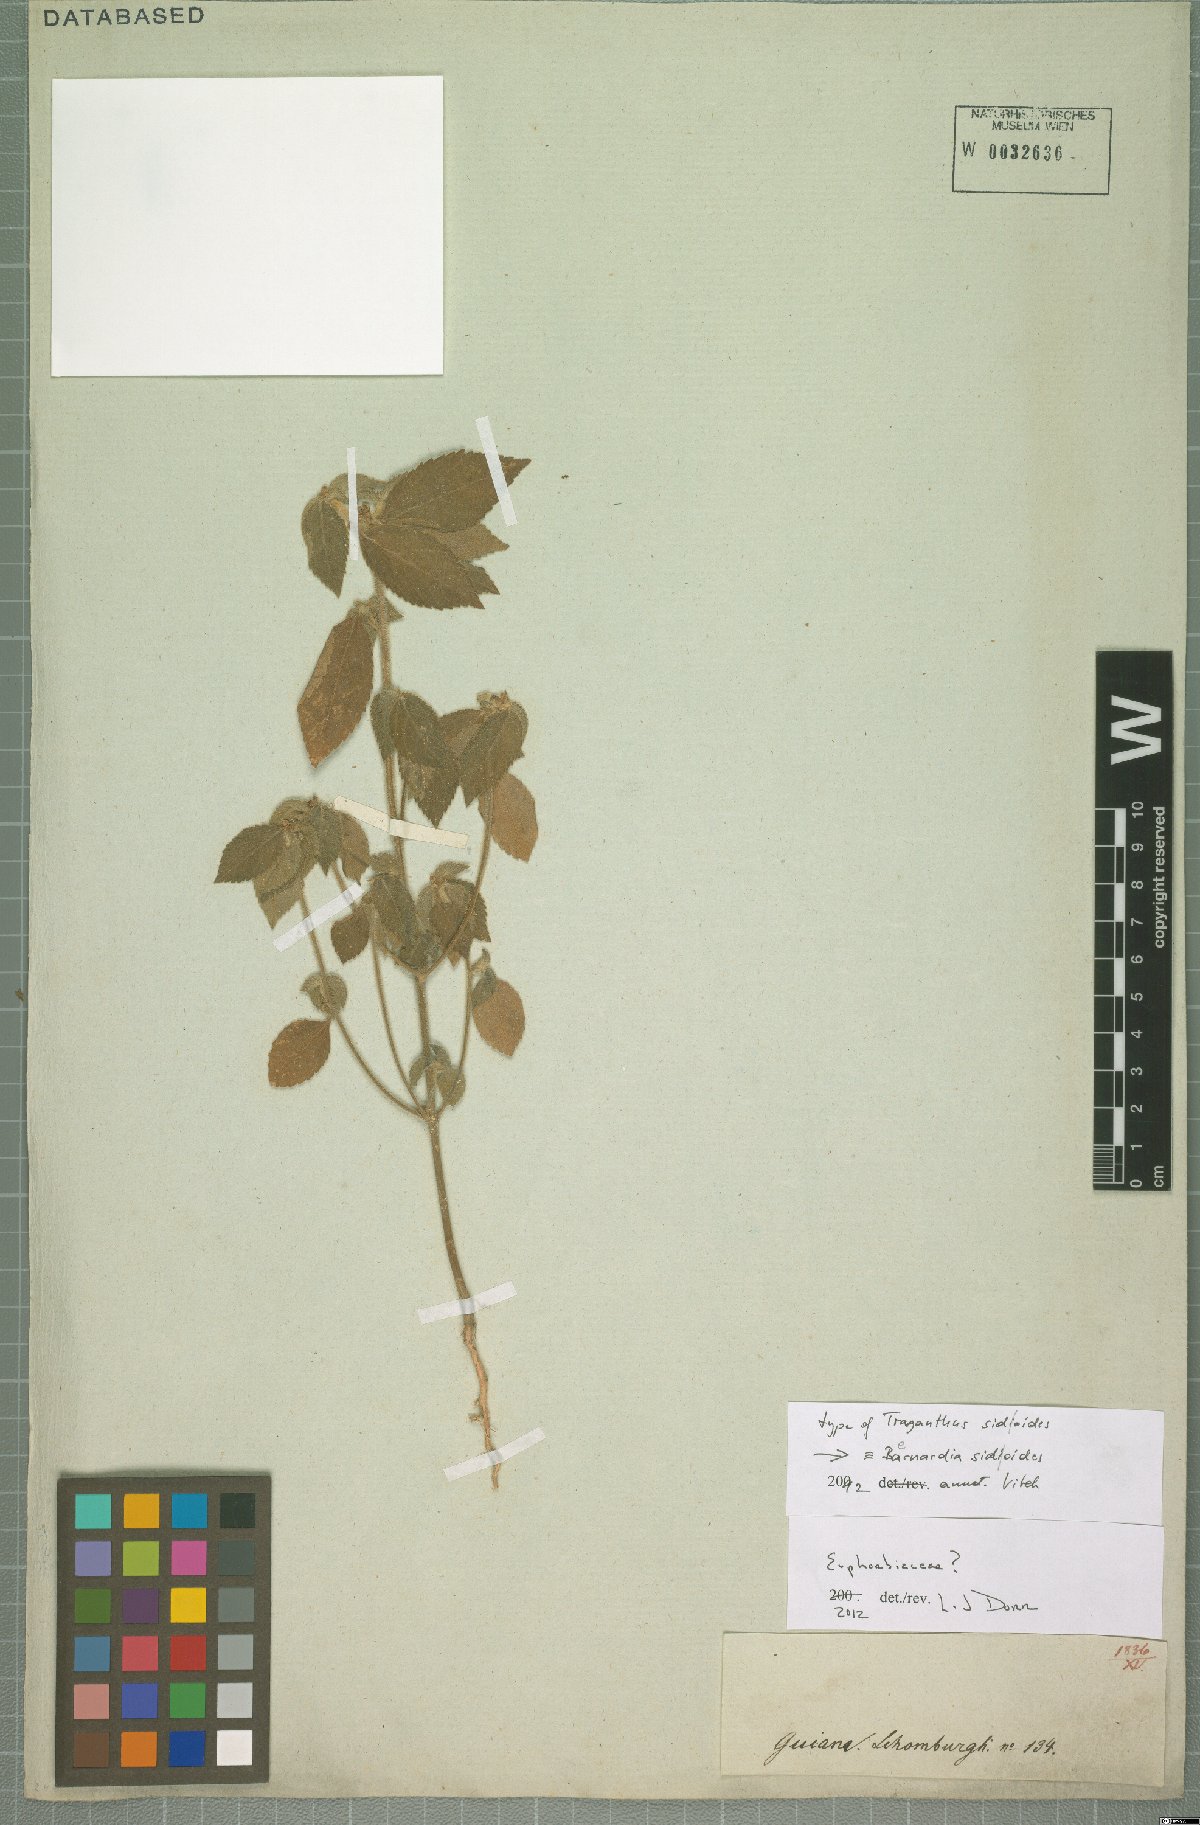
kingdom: Plantae
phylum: Tracheophyta
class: Magnoliopsida
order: Malpighiales
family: Euphorbiaceae
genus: Bernardia
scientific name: Bernardia sidoides
